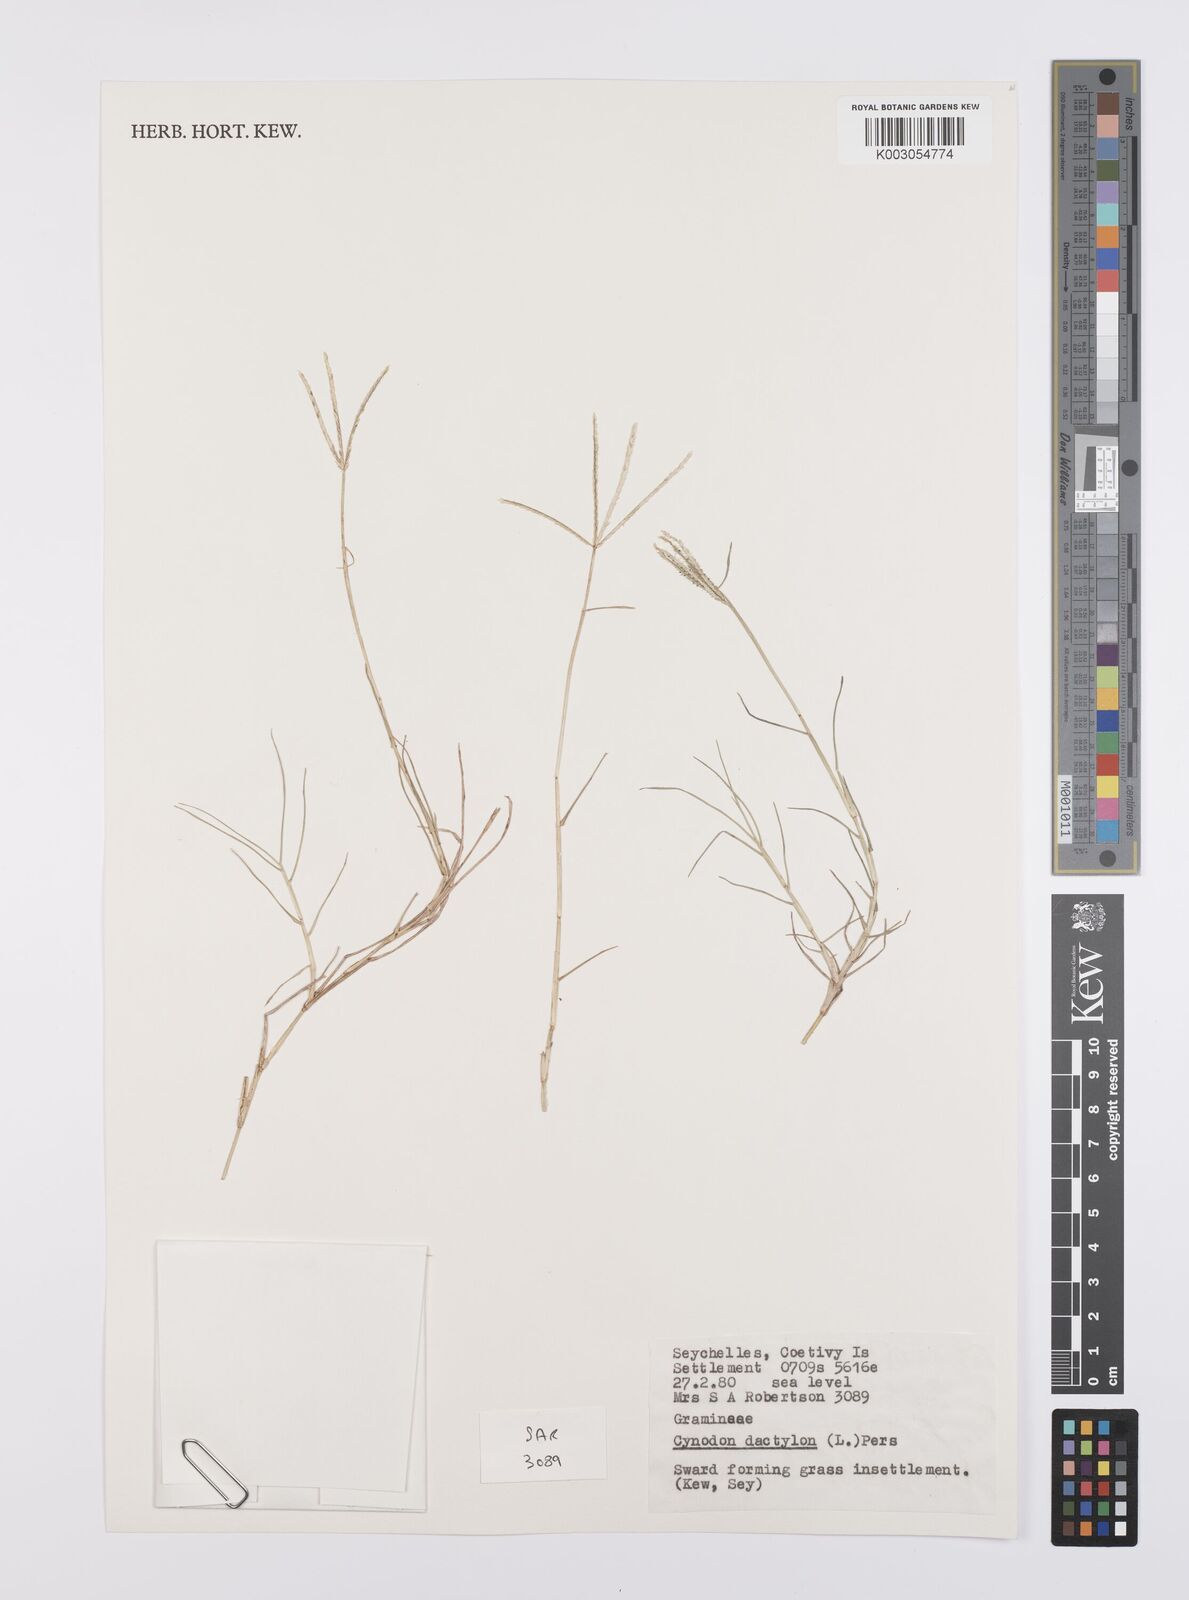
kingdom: Plantae
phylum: Tracheophyta
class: Liliopsida
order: Poales
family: Poaceae
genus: Cynodon
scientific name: Cynodon dactylon
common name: Bermuda grass
